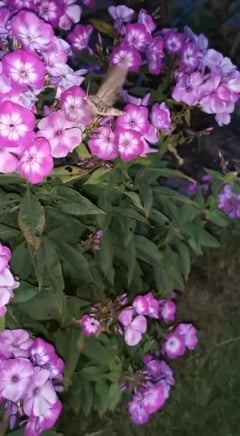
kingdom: Animalia
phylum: Arthropoda
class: Insecta
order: Lepidoptera
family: Sphingidae
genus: Sphinx
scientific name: Sphinx pinastri
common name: Pine hawk-moth
